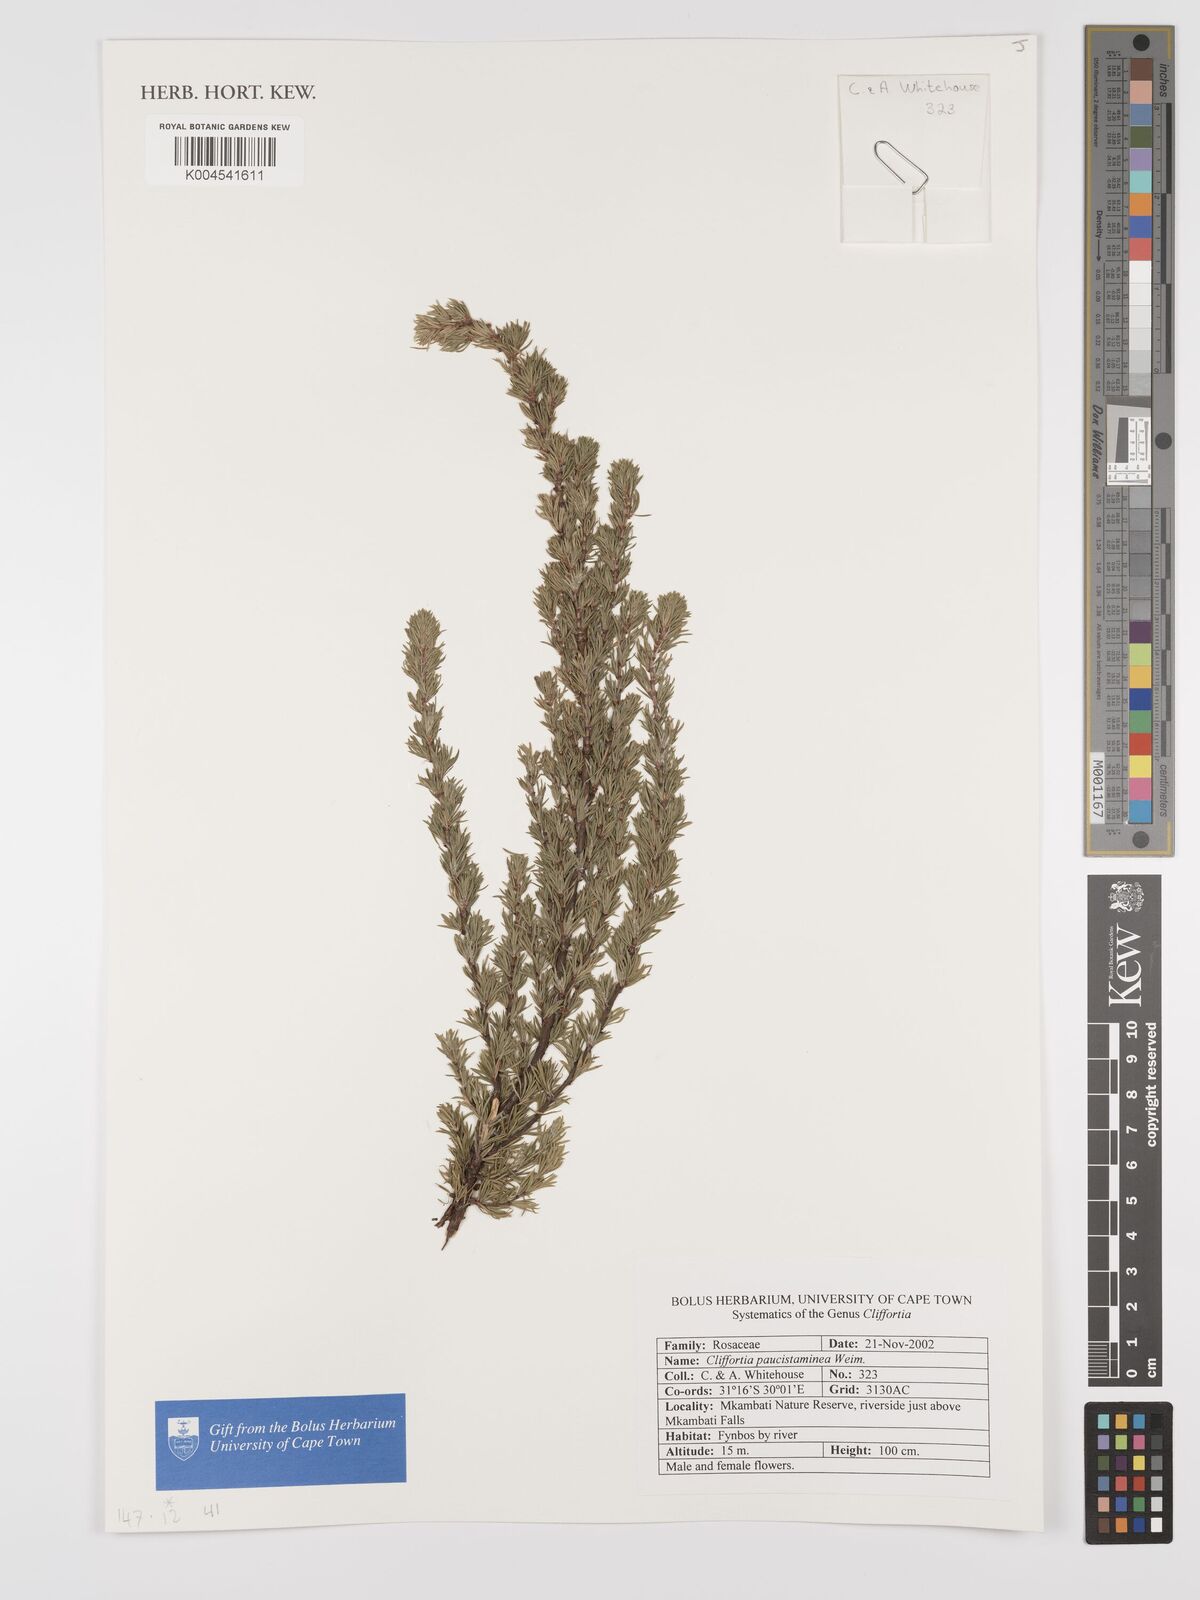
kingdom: Plantae
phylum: Tracheophyta
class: Magnoliopsida
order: Rosales
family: Rosaceae
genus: Cliffortia
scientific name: Cliffortia paucistaminea
